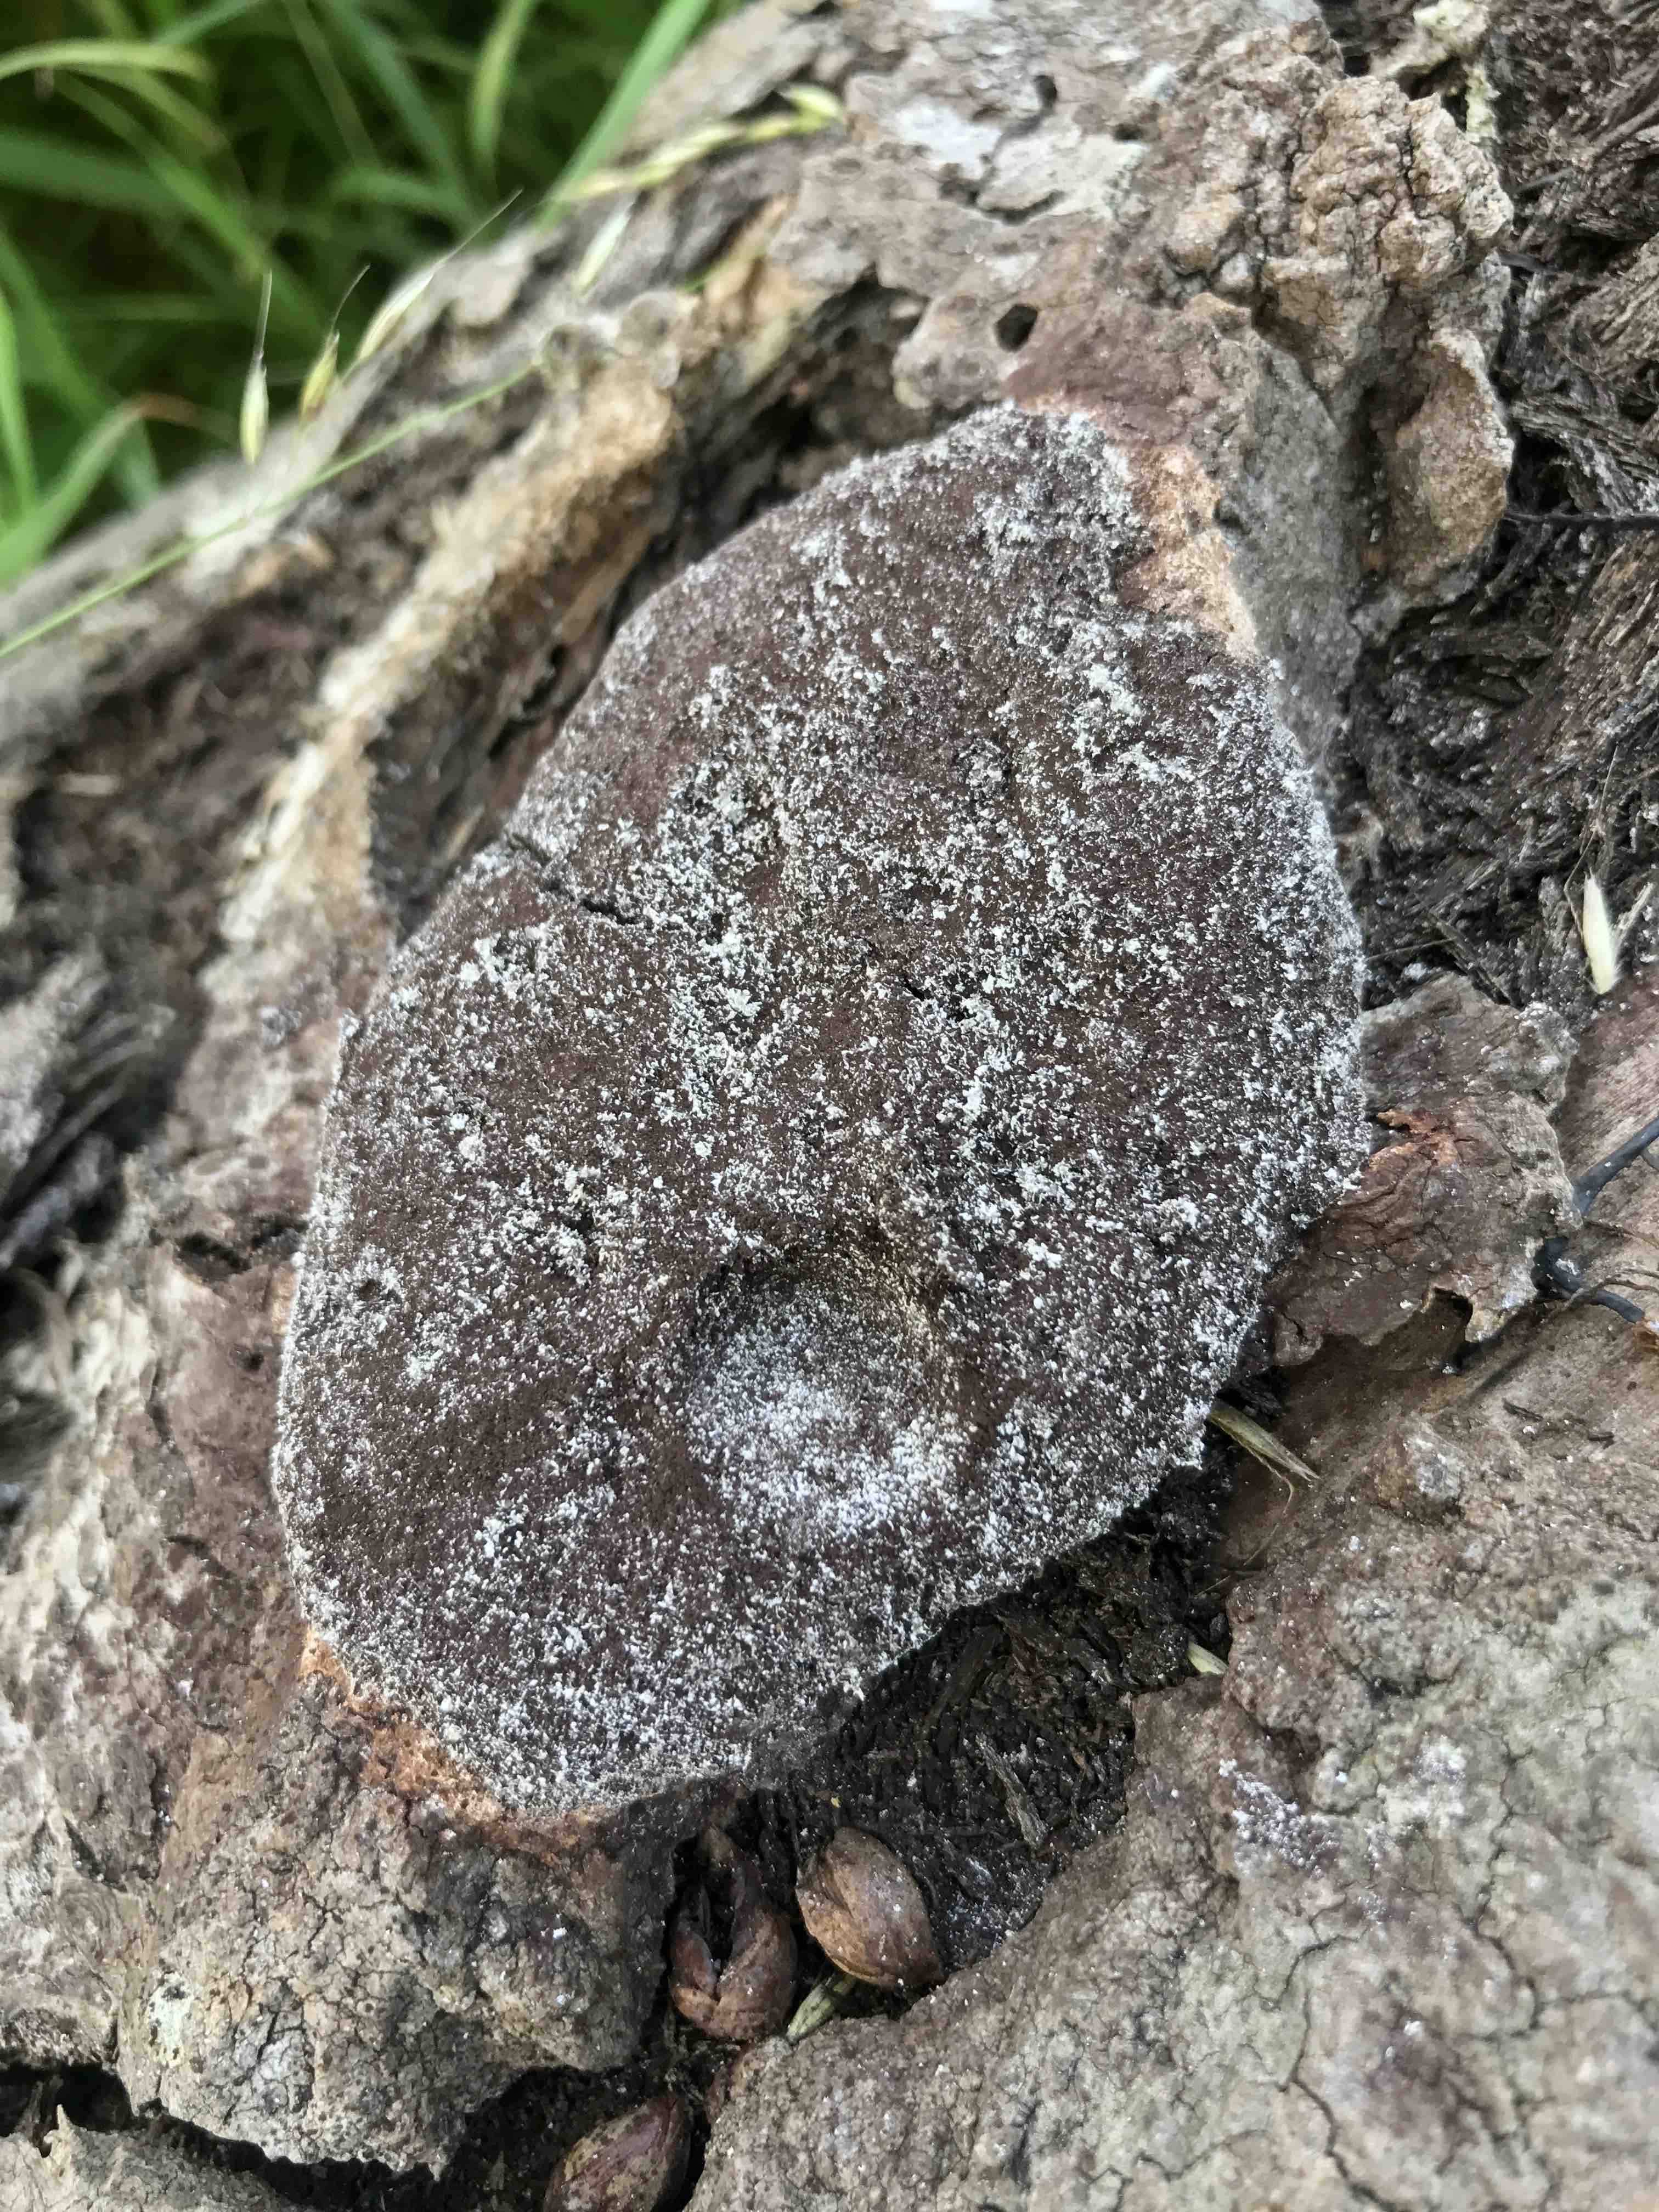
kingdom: Protozoa
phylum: Mycetozoa
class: Myxomycetes
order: Physarales
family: Physaraceae
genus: Fuligo
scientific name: Fuligo septica
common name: gul troldsmør
